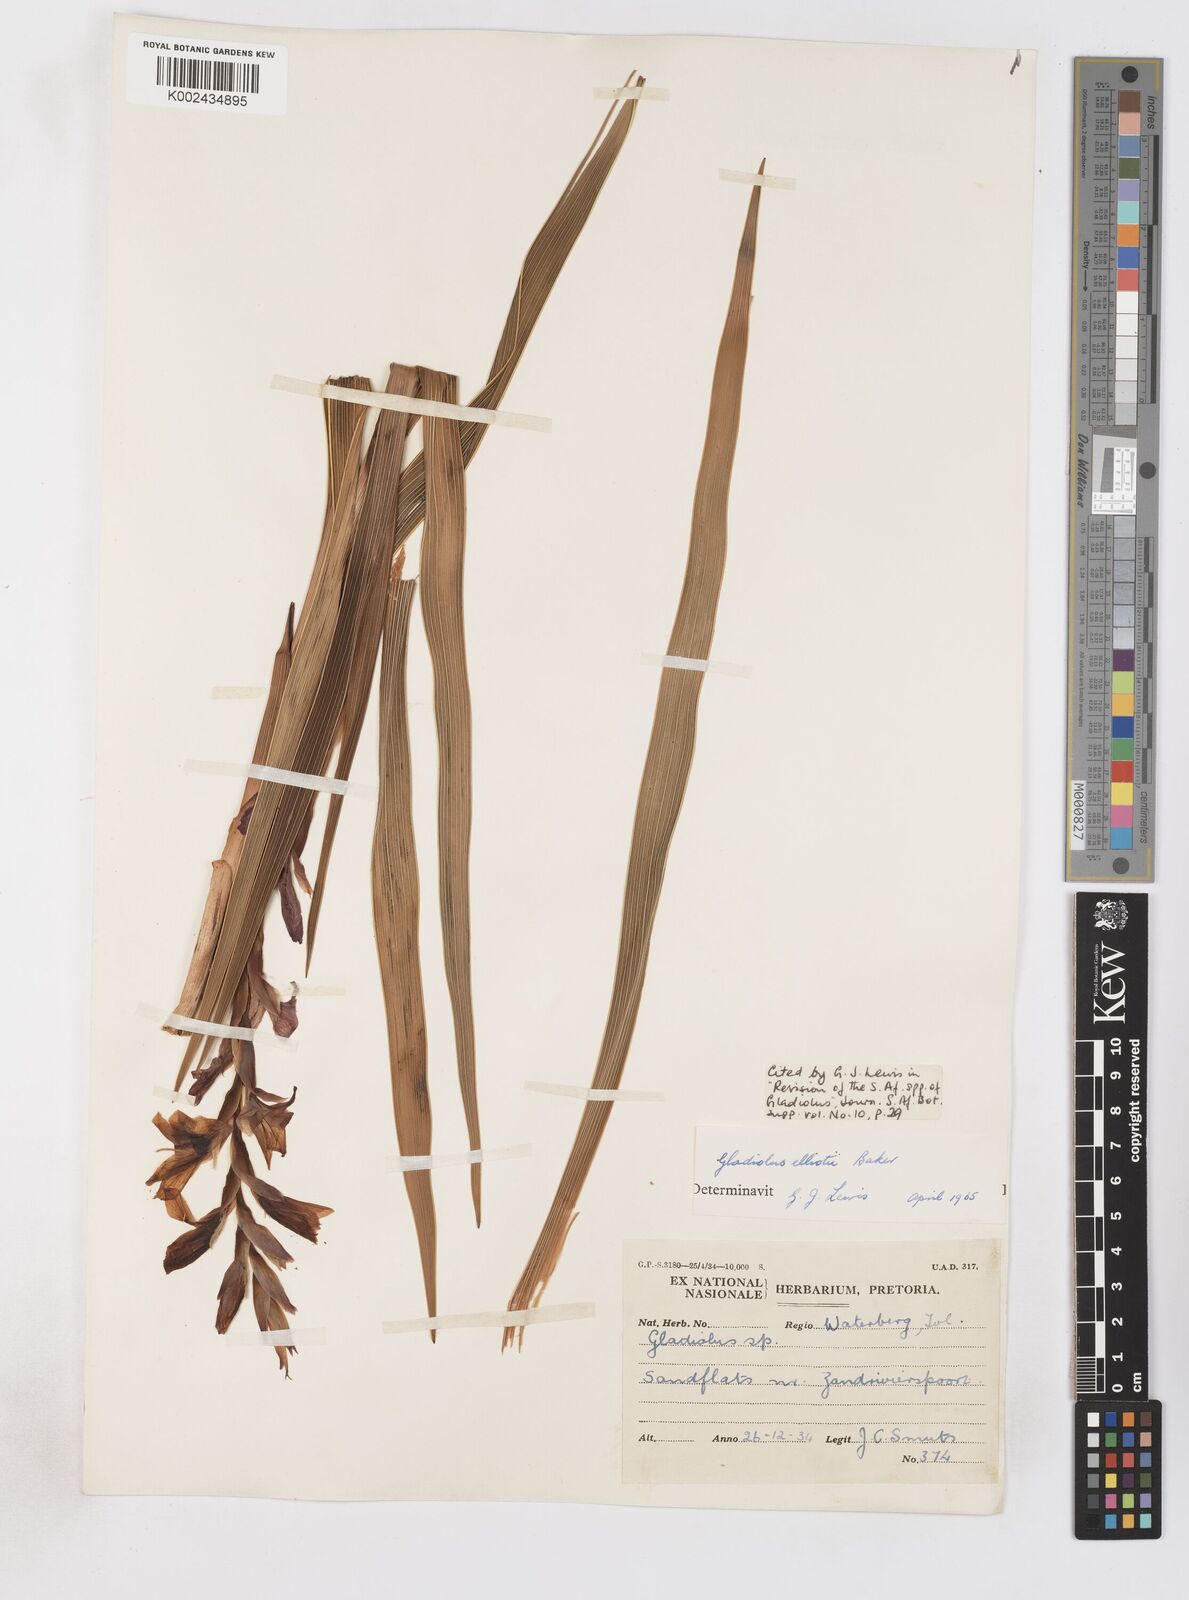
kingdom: Plantae
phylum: Tracheophyta
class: Liliopsida
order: Asparagales
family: Iridaceae
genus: Gladiolus
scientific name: Gladiolus elliotii
